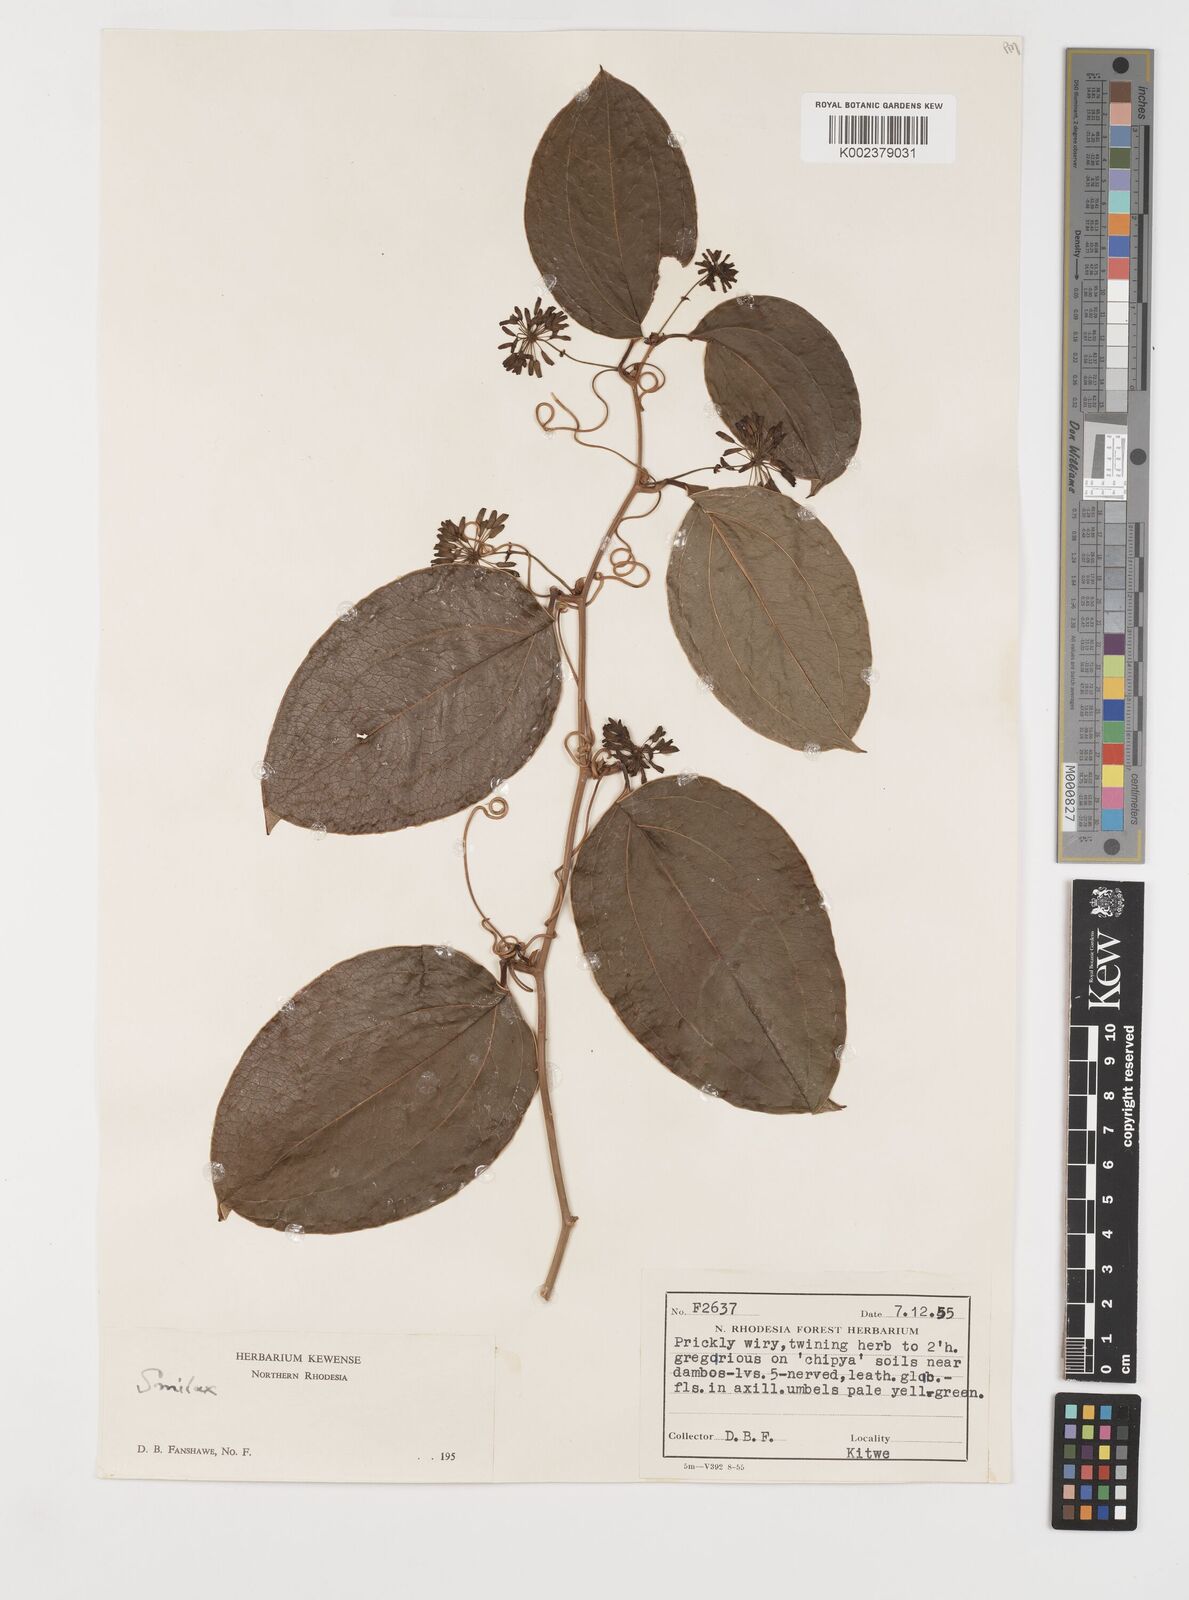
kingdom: Plantae
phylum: Tracheophyta
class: Liliopsida
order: Liliales
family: Smilacaceae
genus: Smilax
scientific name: Smilax anceps
